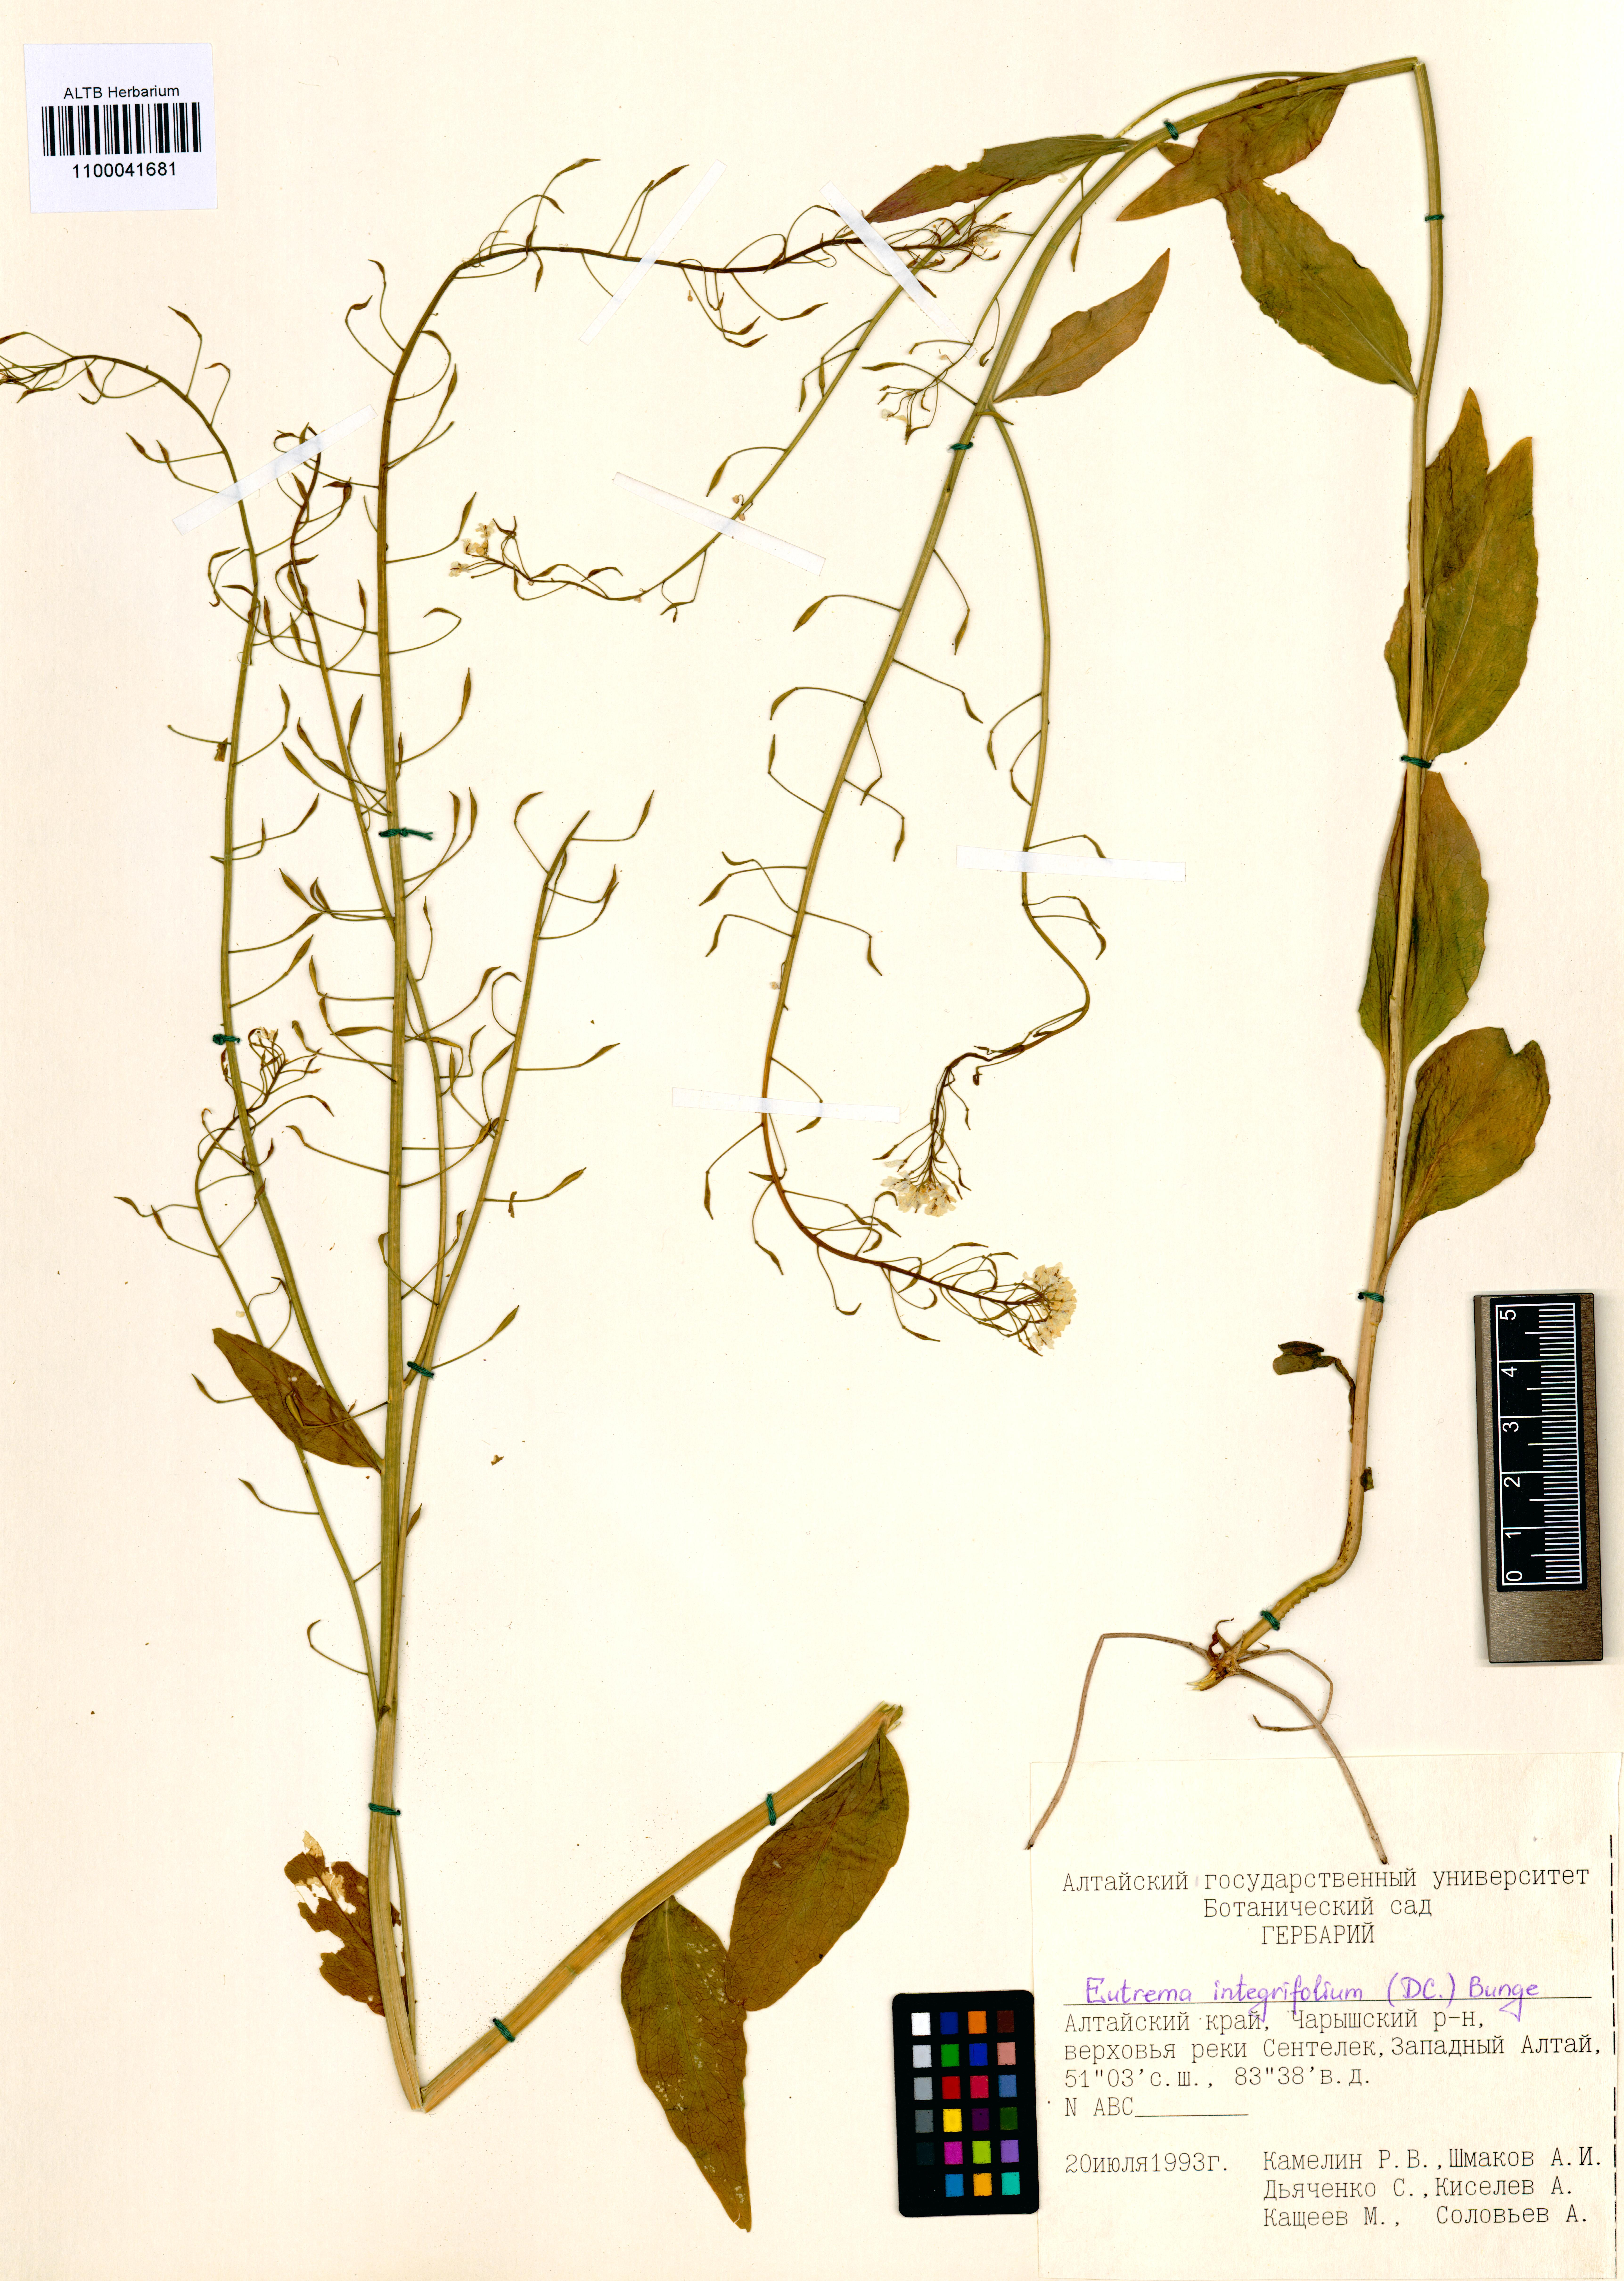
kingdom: Plantae
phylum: Tracheophyta
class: Magnoliopsida
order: Brassicales
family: Brassicaceae
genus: Eutrema
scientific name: Eutrema integrifolium
